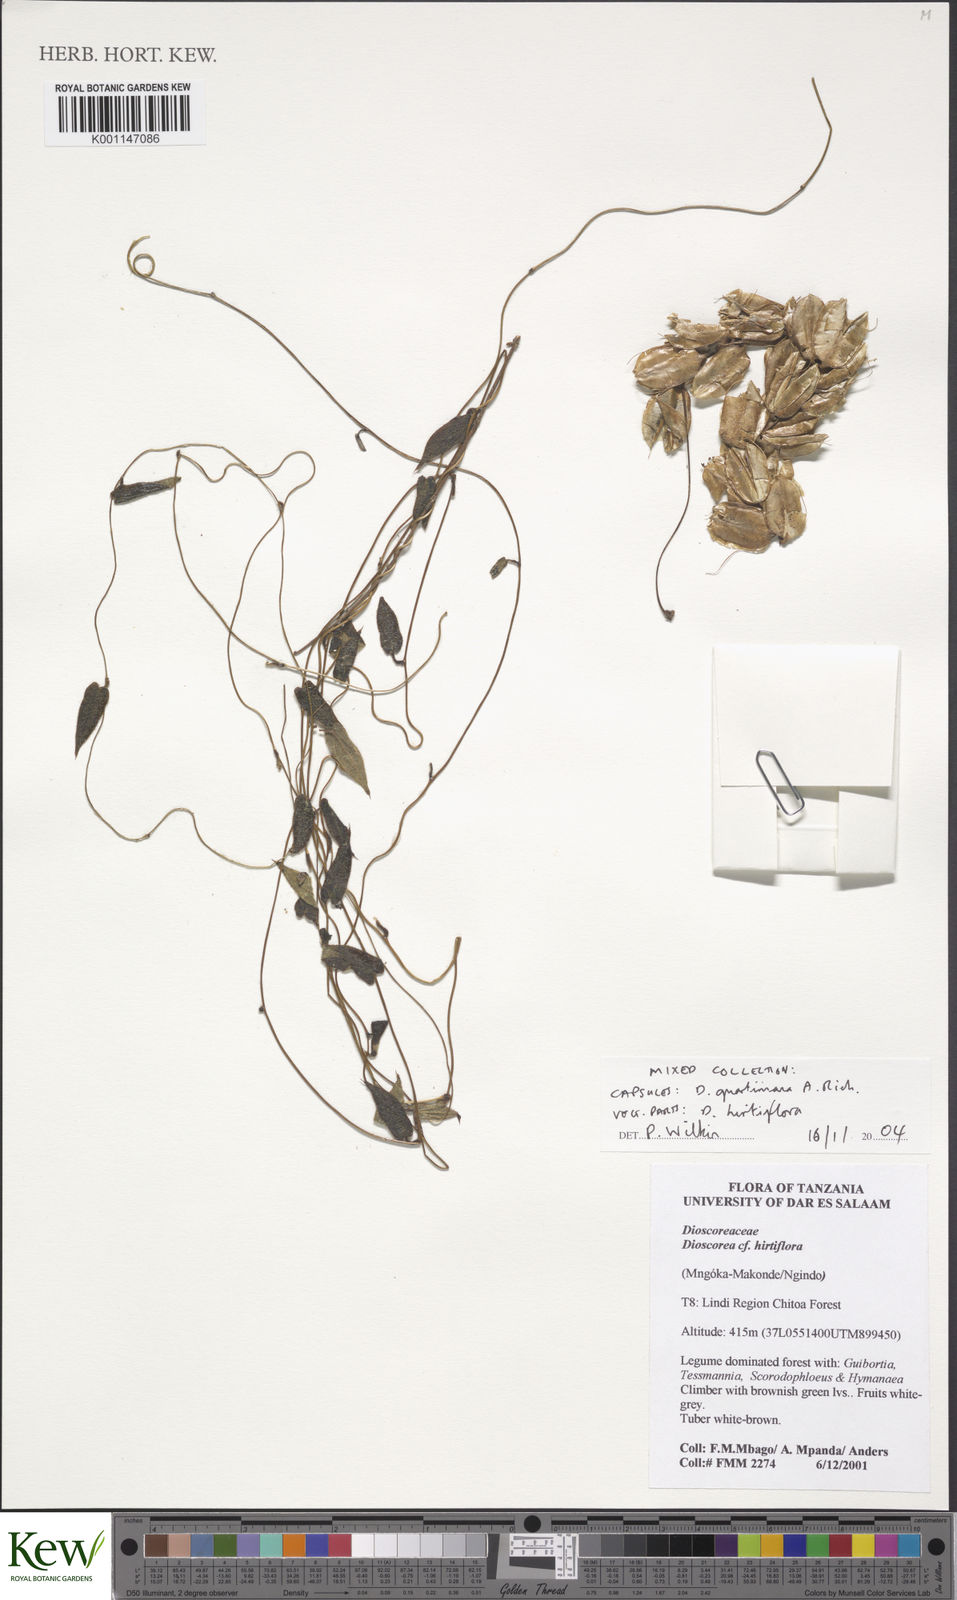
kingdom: Plantae
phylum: Tracheophyta
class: Liliopsida
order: Dioscoreales
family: Dioscoreaceae
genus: Dioscorea
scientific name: Dioscorea quartiniana
